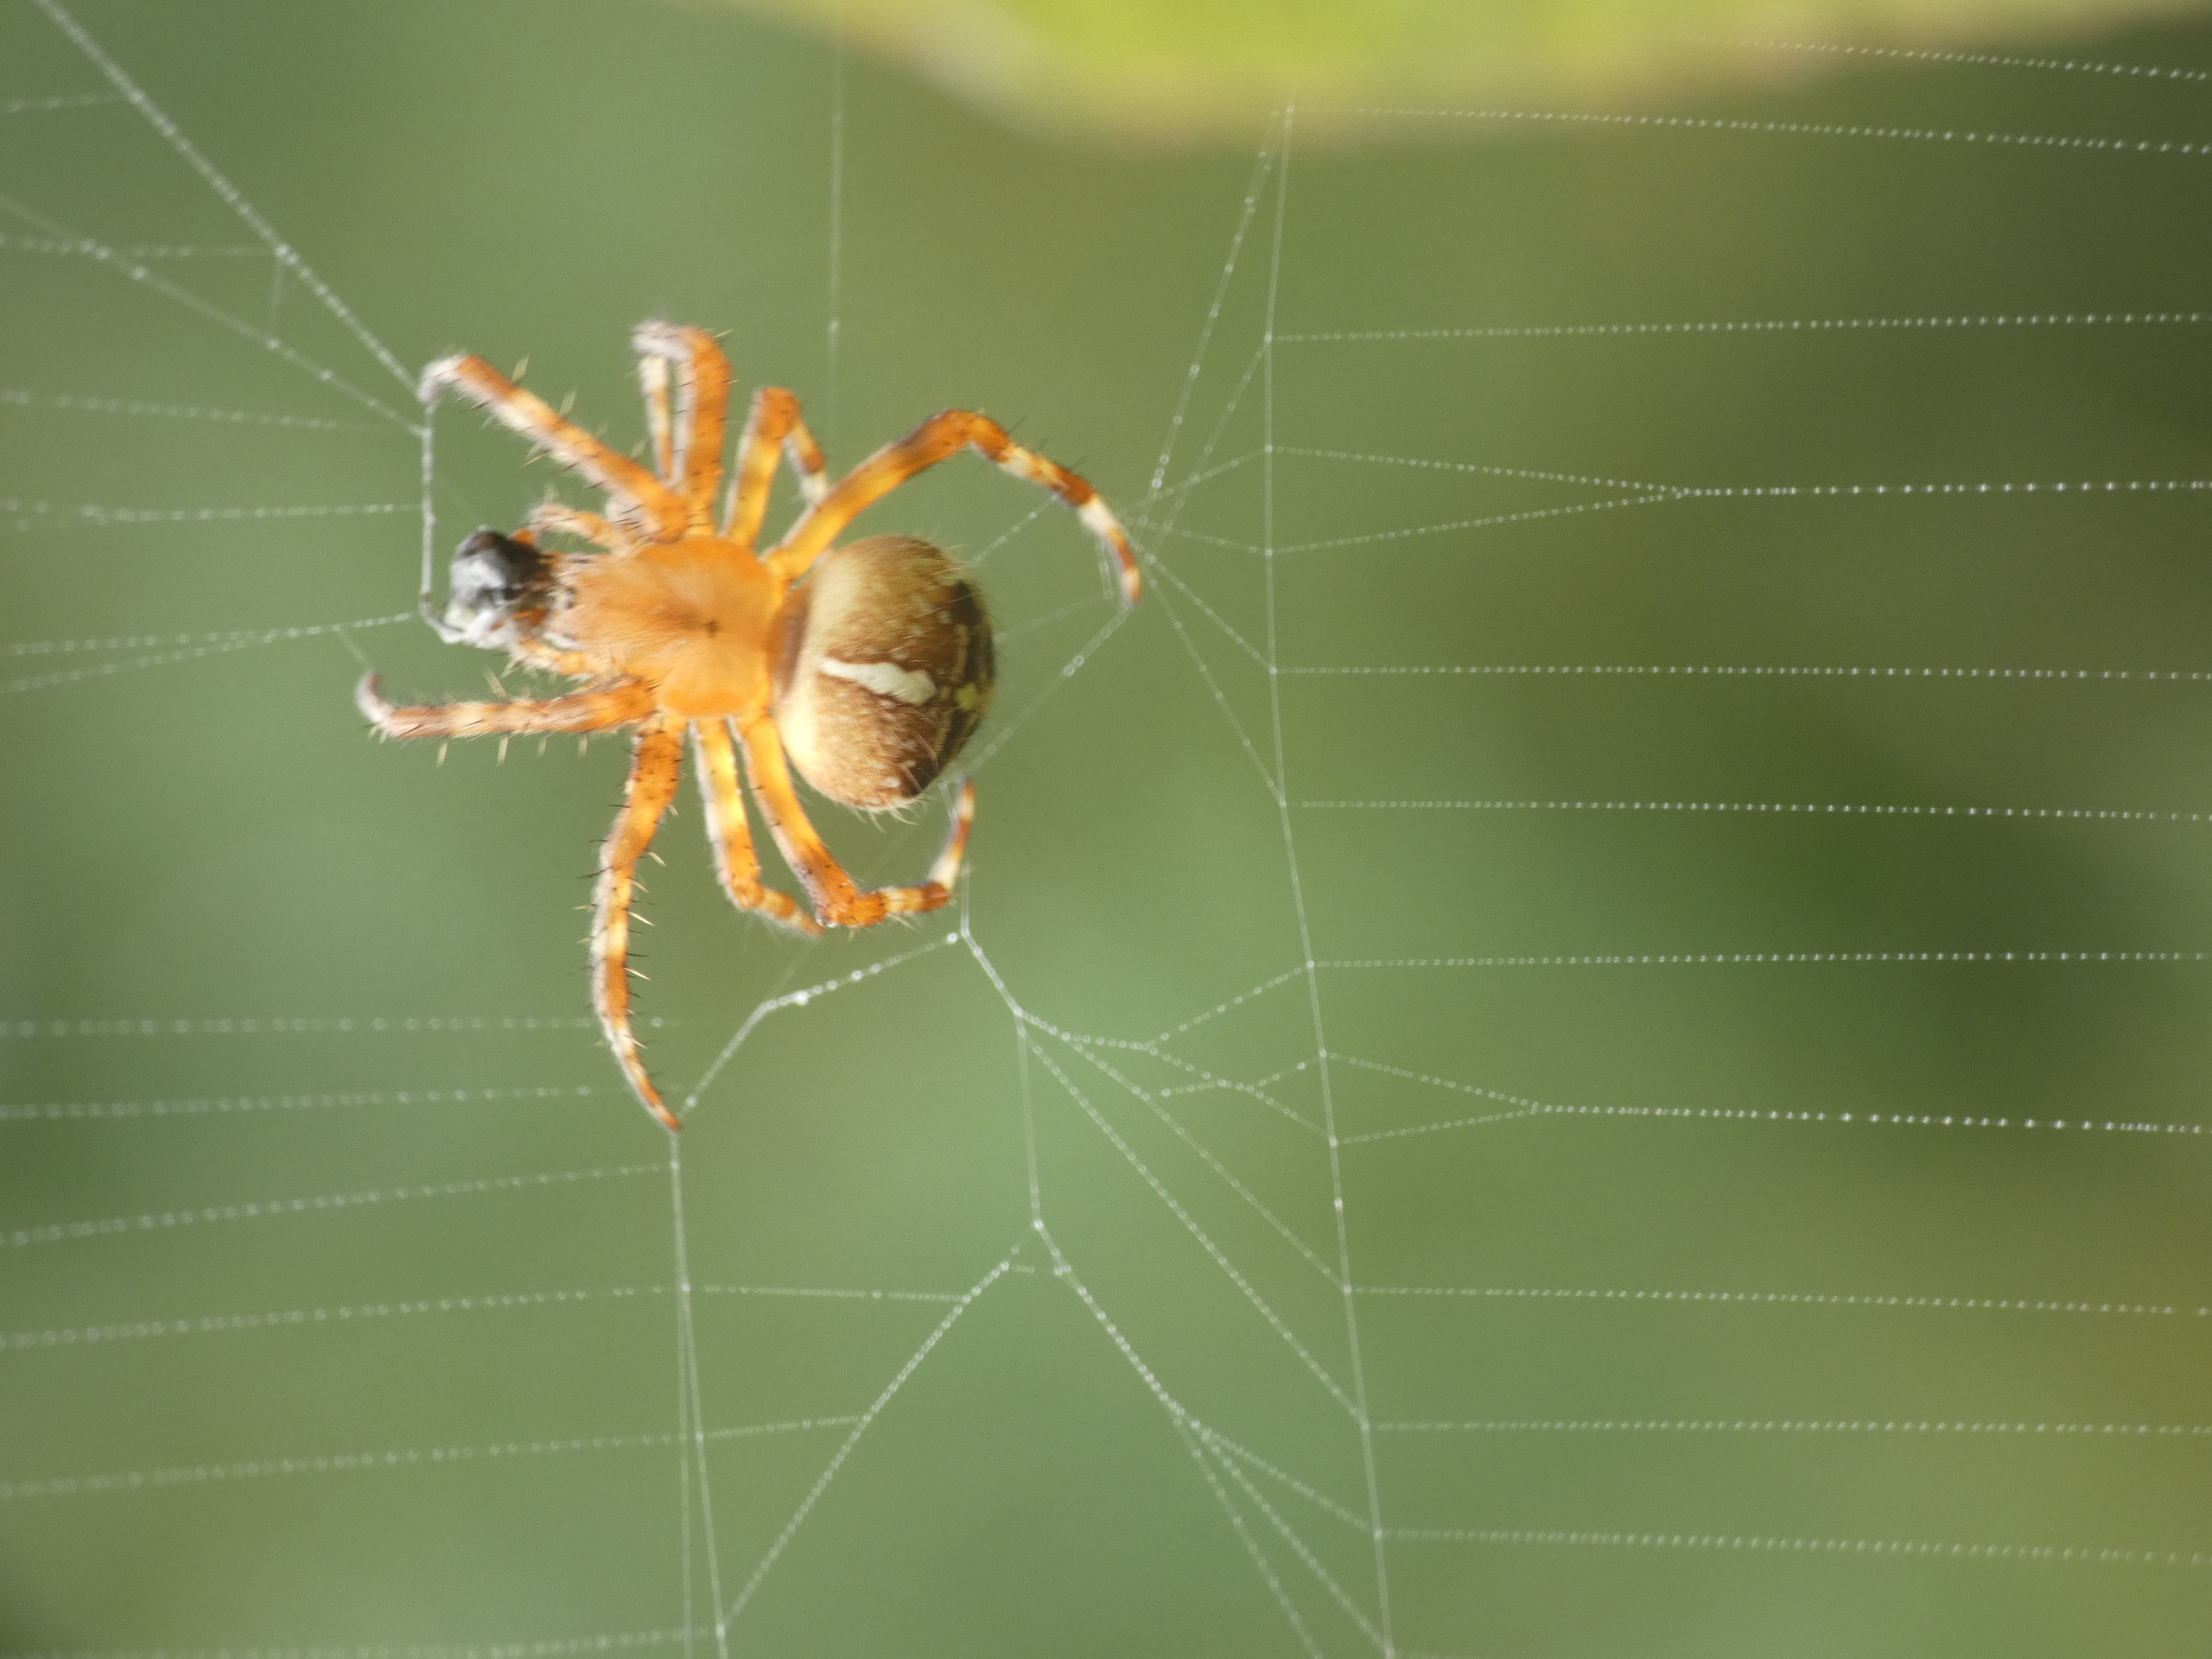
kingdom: Animalia
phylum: Arthropoda
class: Arachnida
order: Araneae
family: Araneidae
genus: Araneus
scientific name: Araneus diadematus
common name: Korsedderkop
